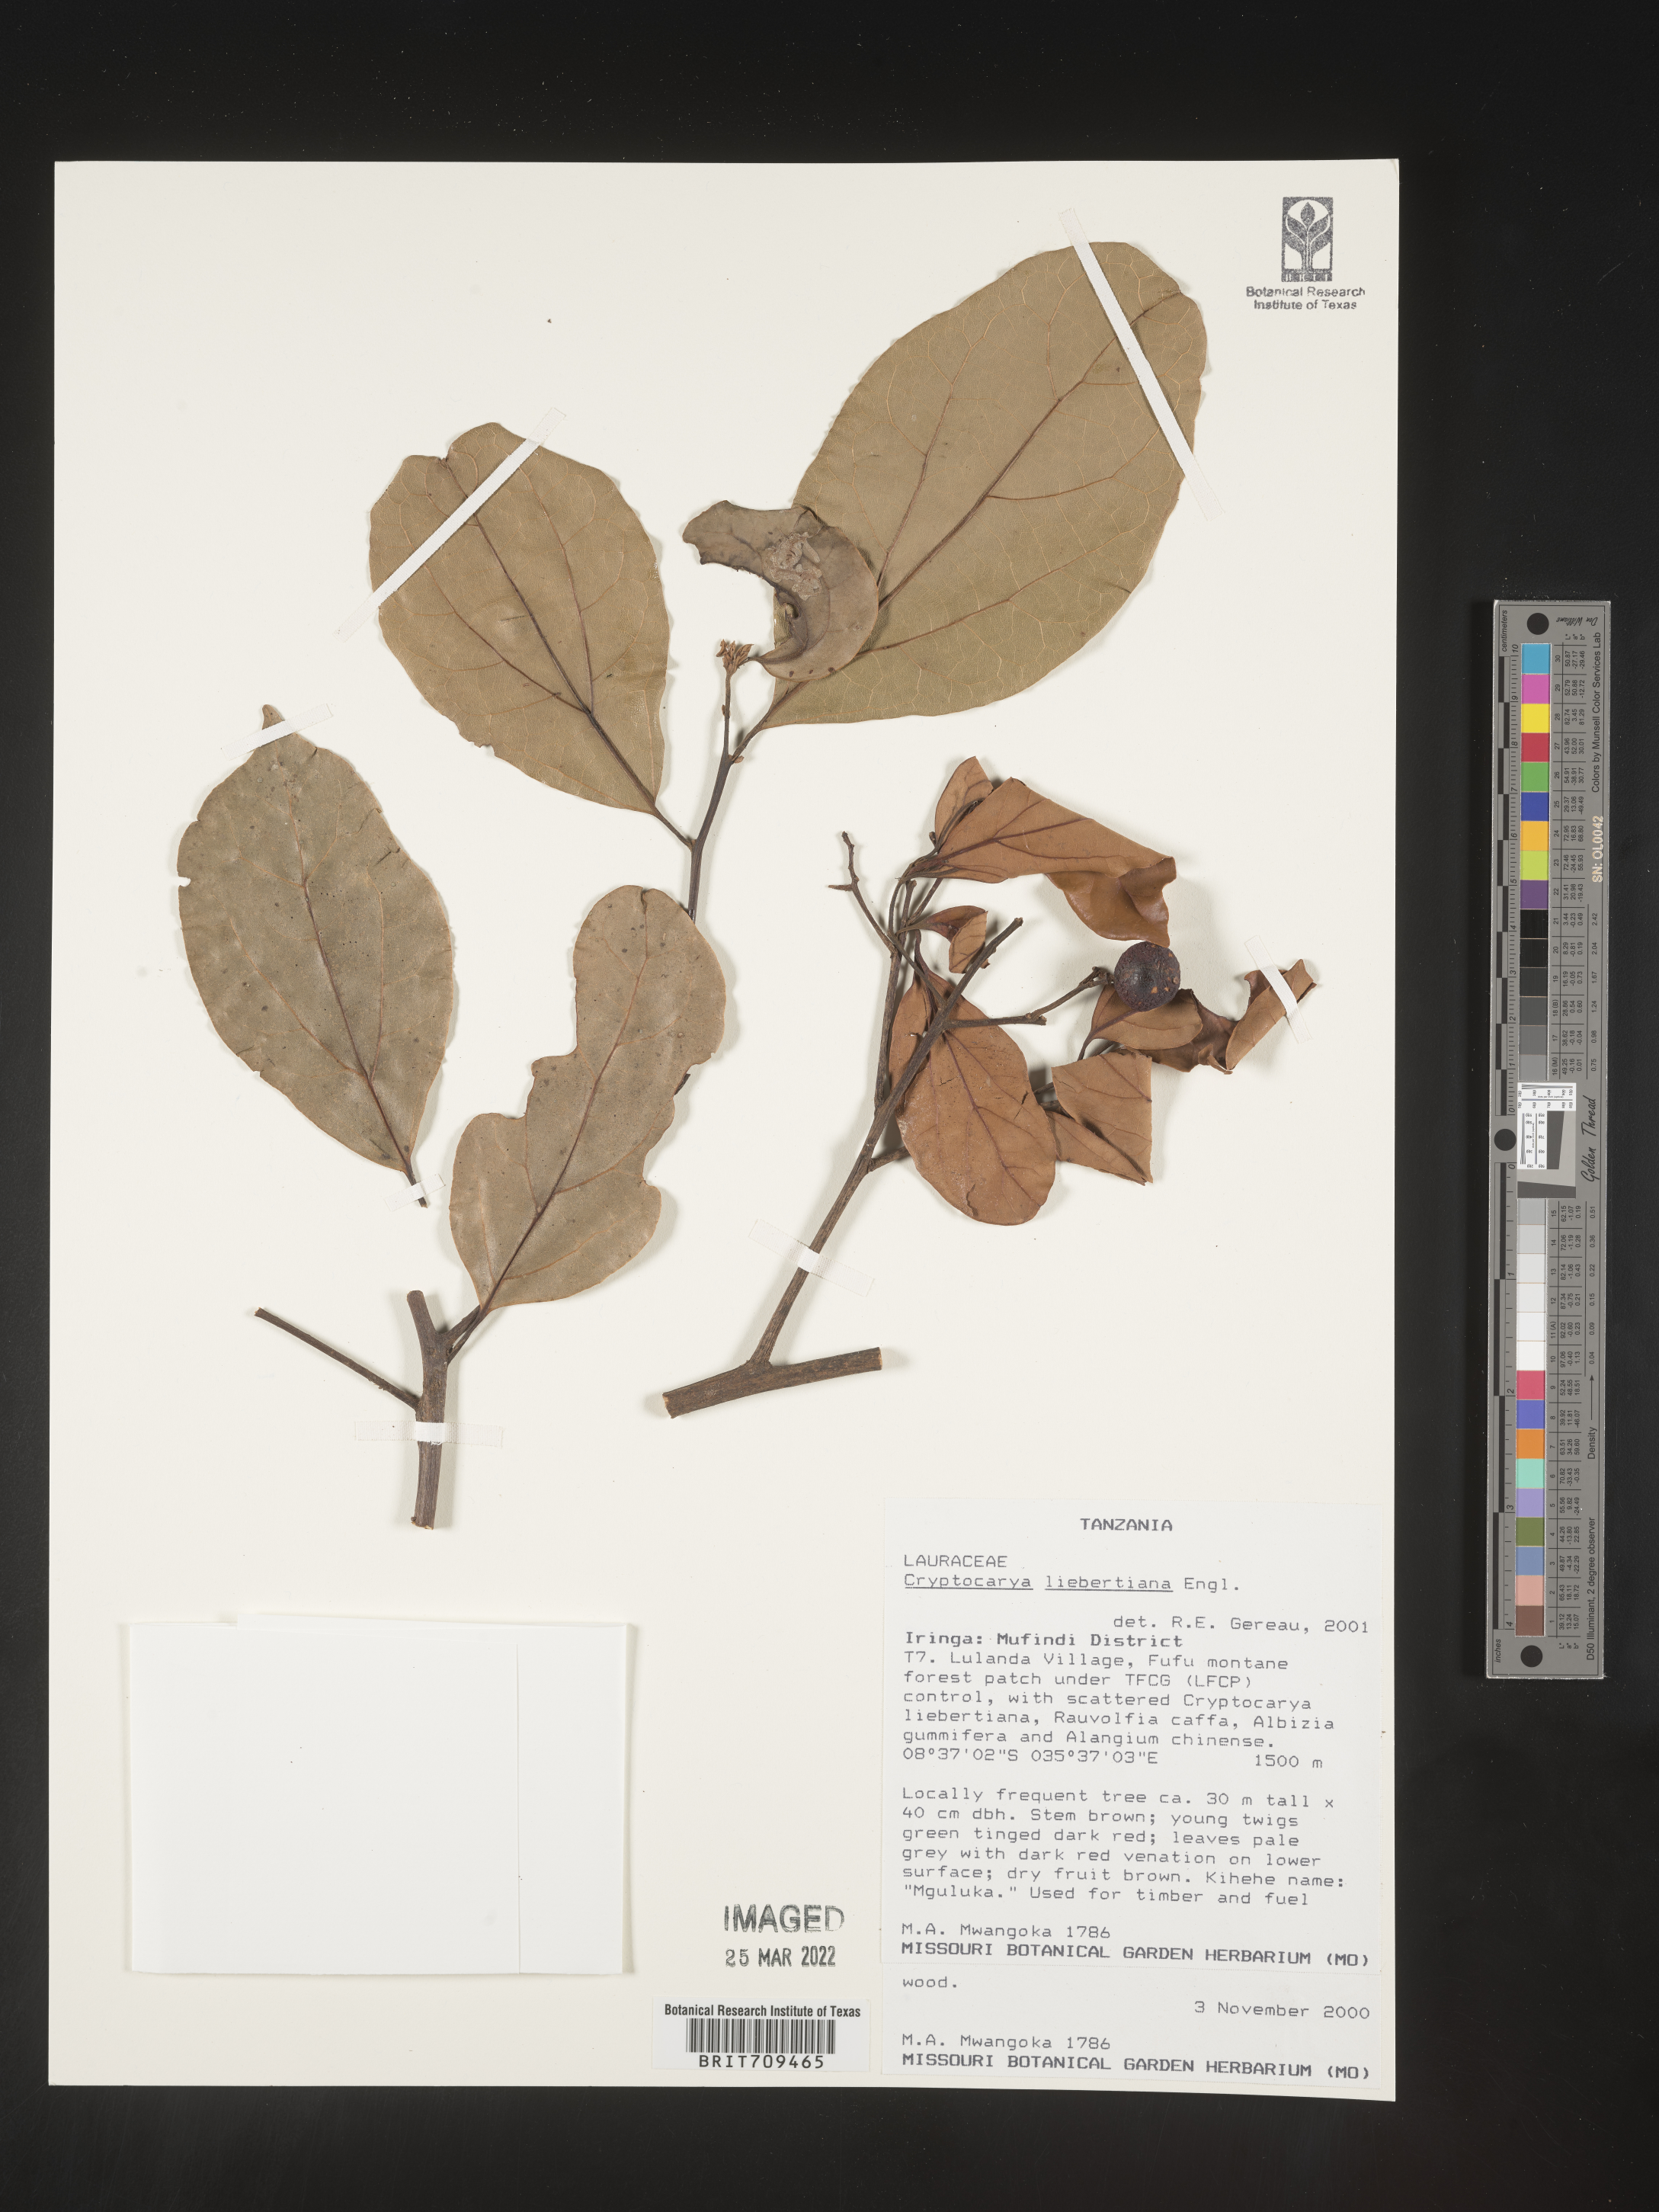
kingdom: Plantae
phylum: Tracheophyta
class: Magnoliopsida
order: Laurales
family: Lauraceae
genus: Cryptocarya
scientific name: Cryptocarya
